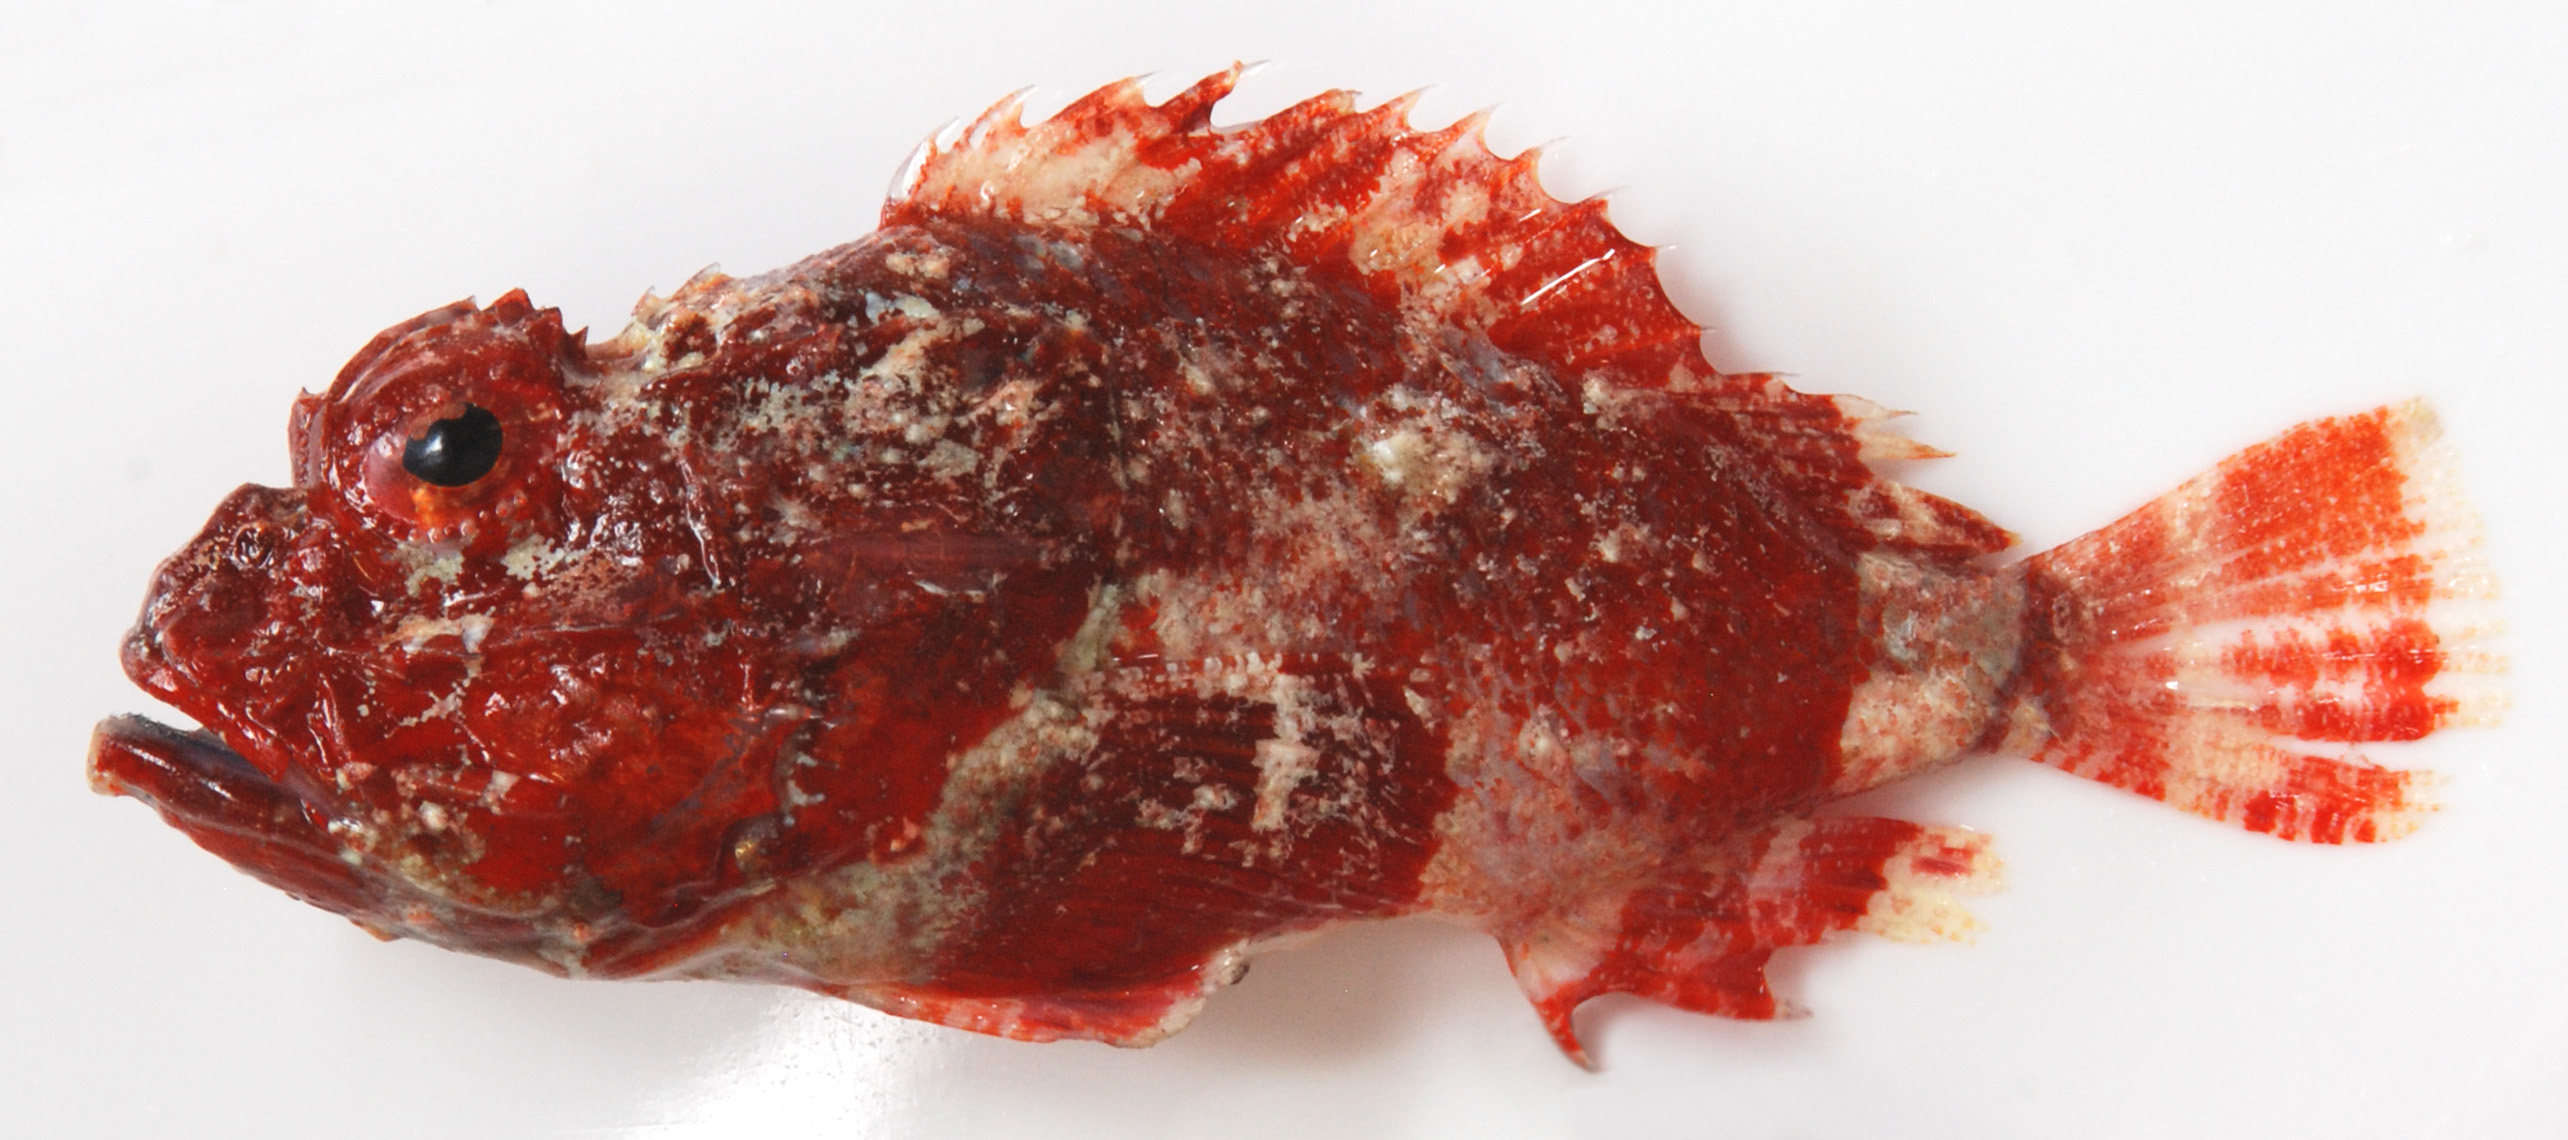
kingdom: Animalia
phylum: Chordata
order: Scorpaeniformes
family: Scorpaenidae
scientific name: Scorpaenidae
